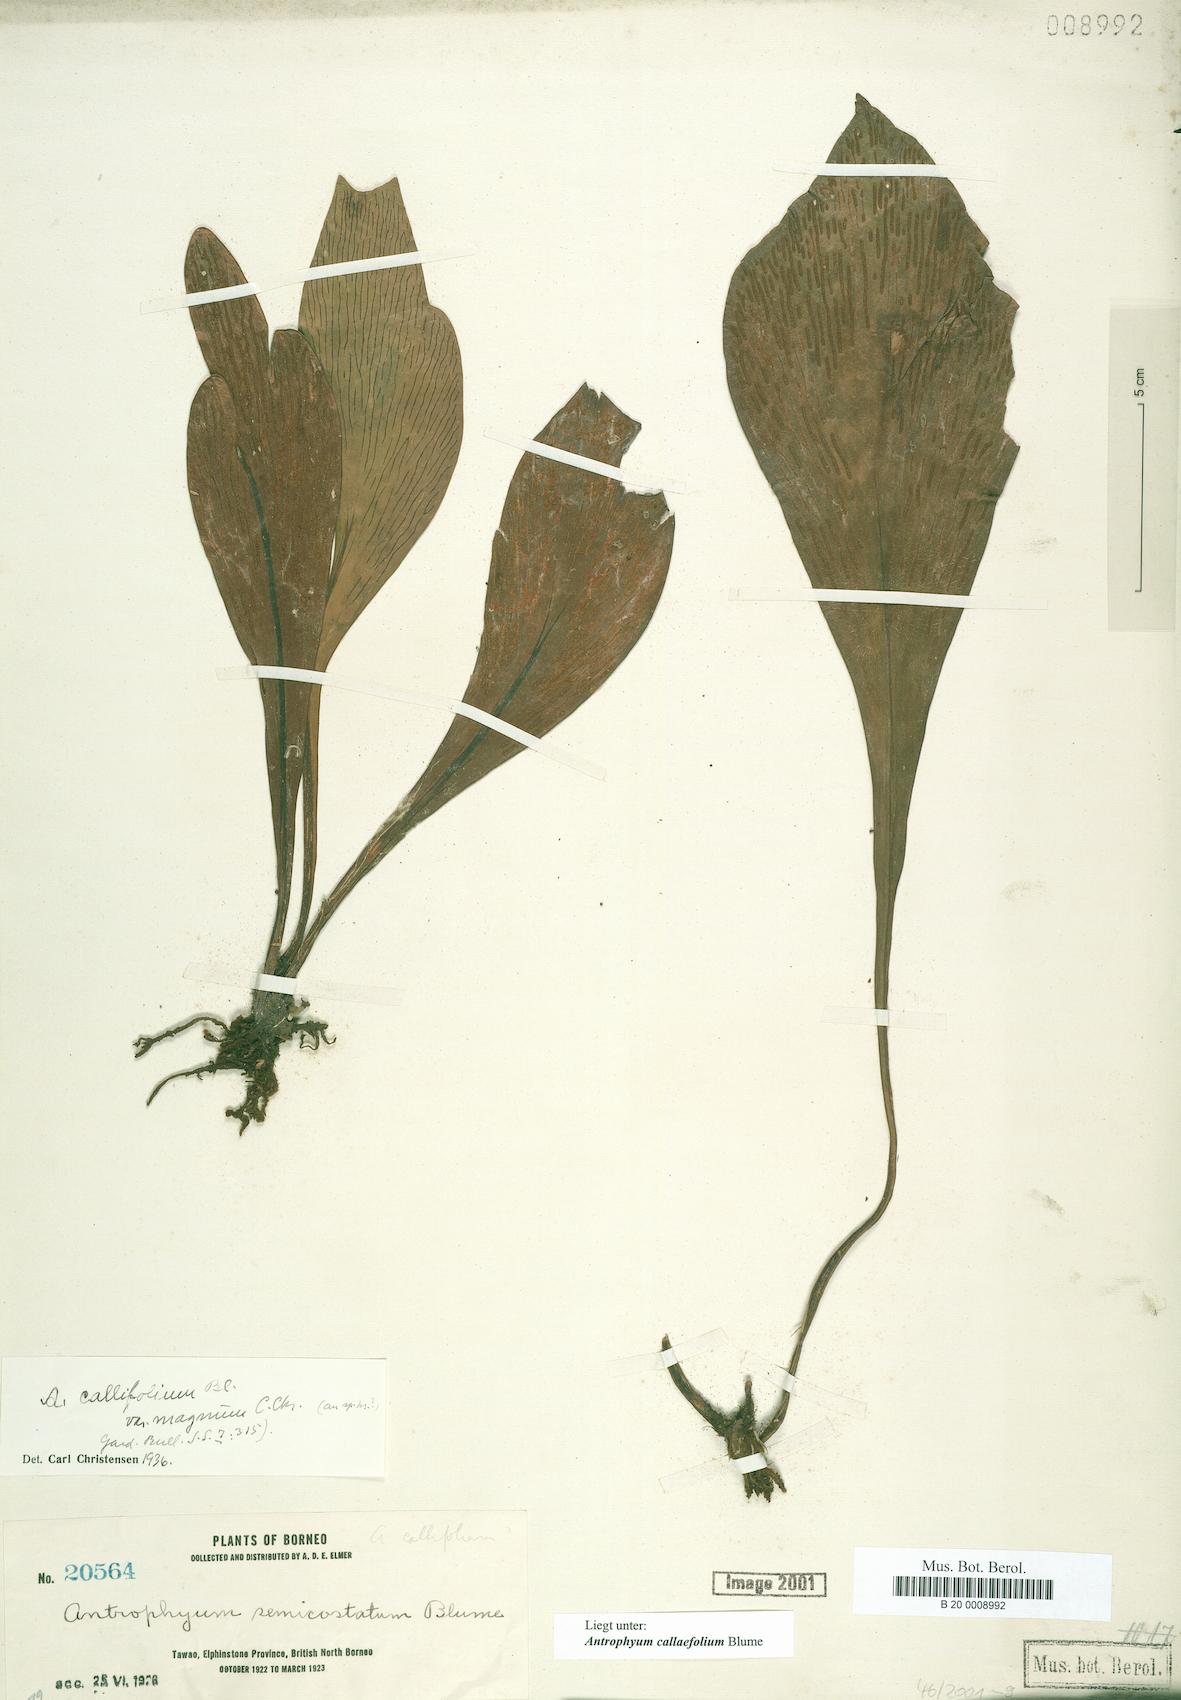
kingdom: Plantae
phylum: Tracheophyta
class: Polypodiopsida
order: Polypodiales
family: Pteridaceae
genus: Antrophyum
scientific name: Antrophyum callifolium
